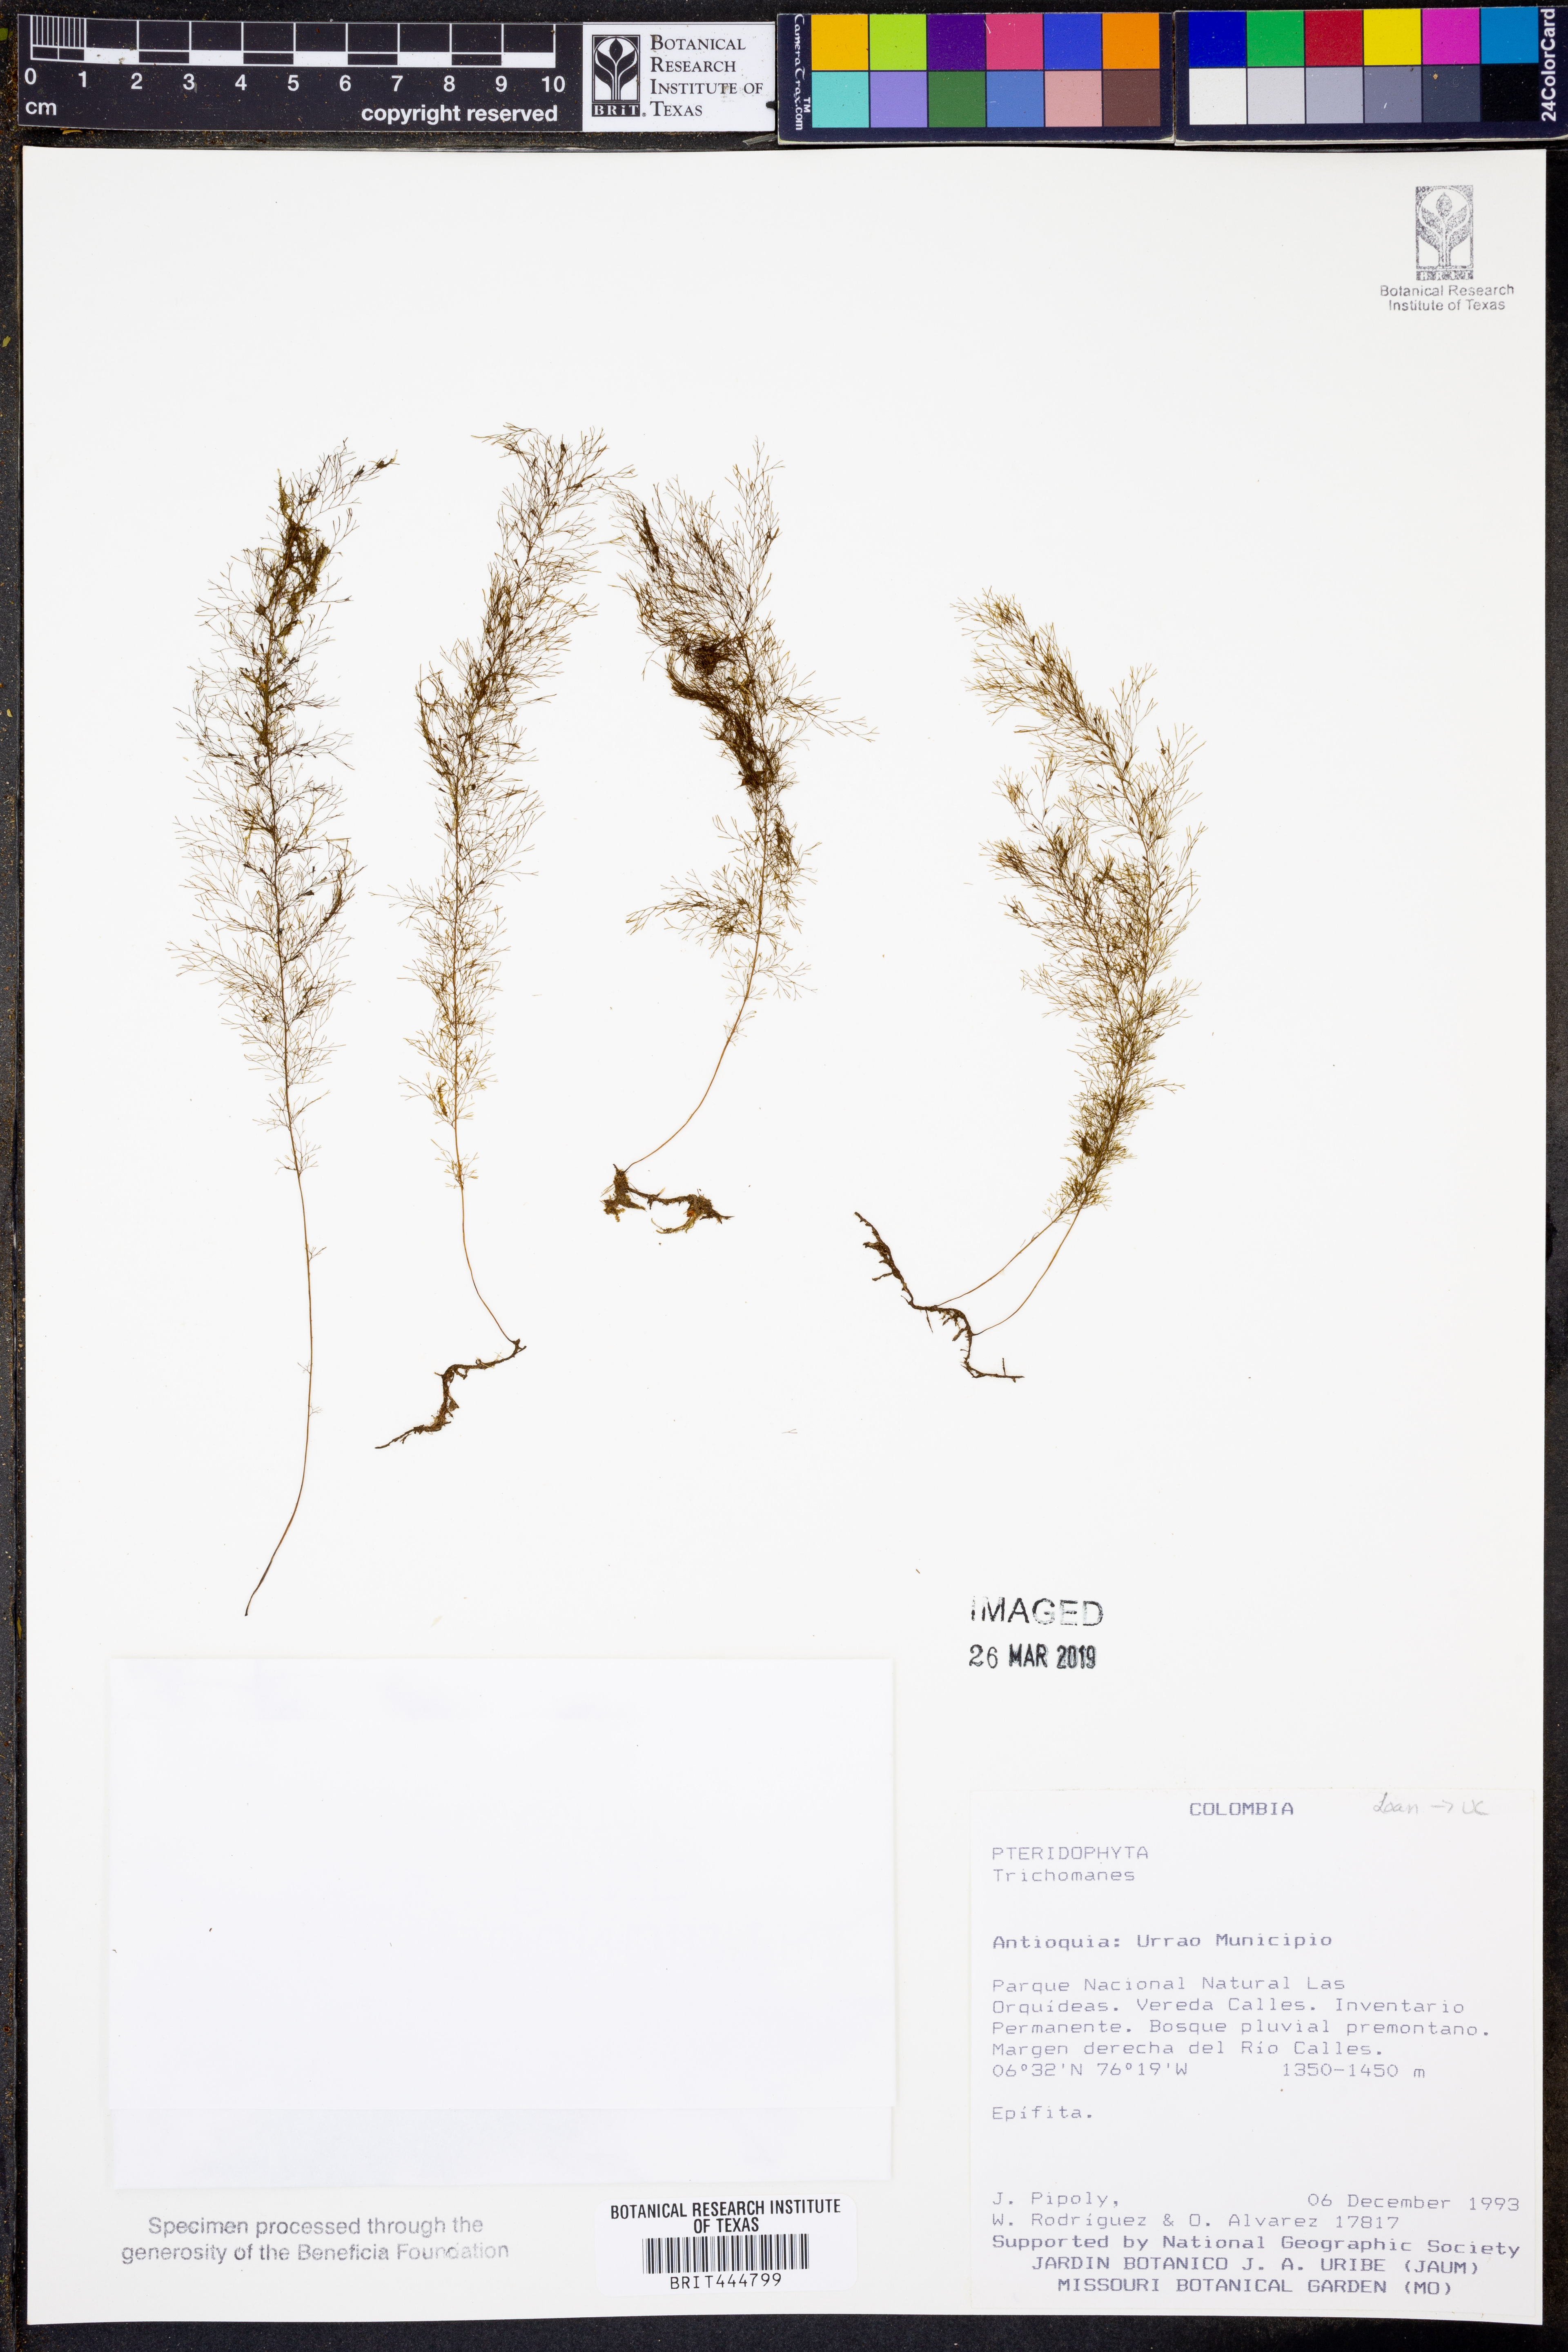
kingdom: Plantae
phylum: Tracheophyta
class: Polypodiopsida
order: Hymenophyllales
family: Hymenophyllaceae
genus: Trichomanes
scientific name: Trichomanes
